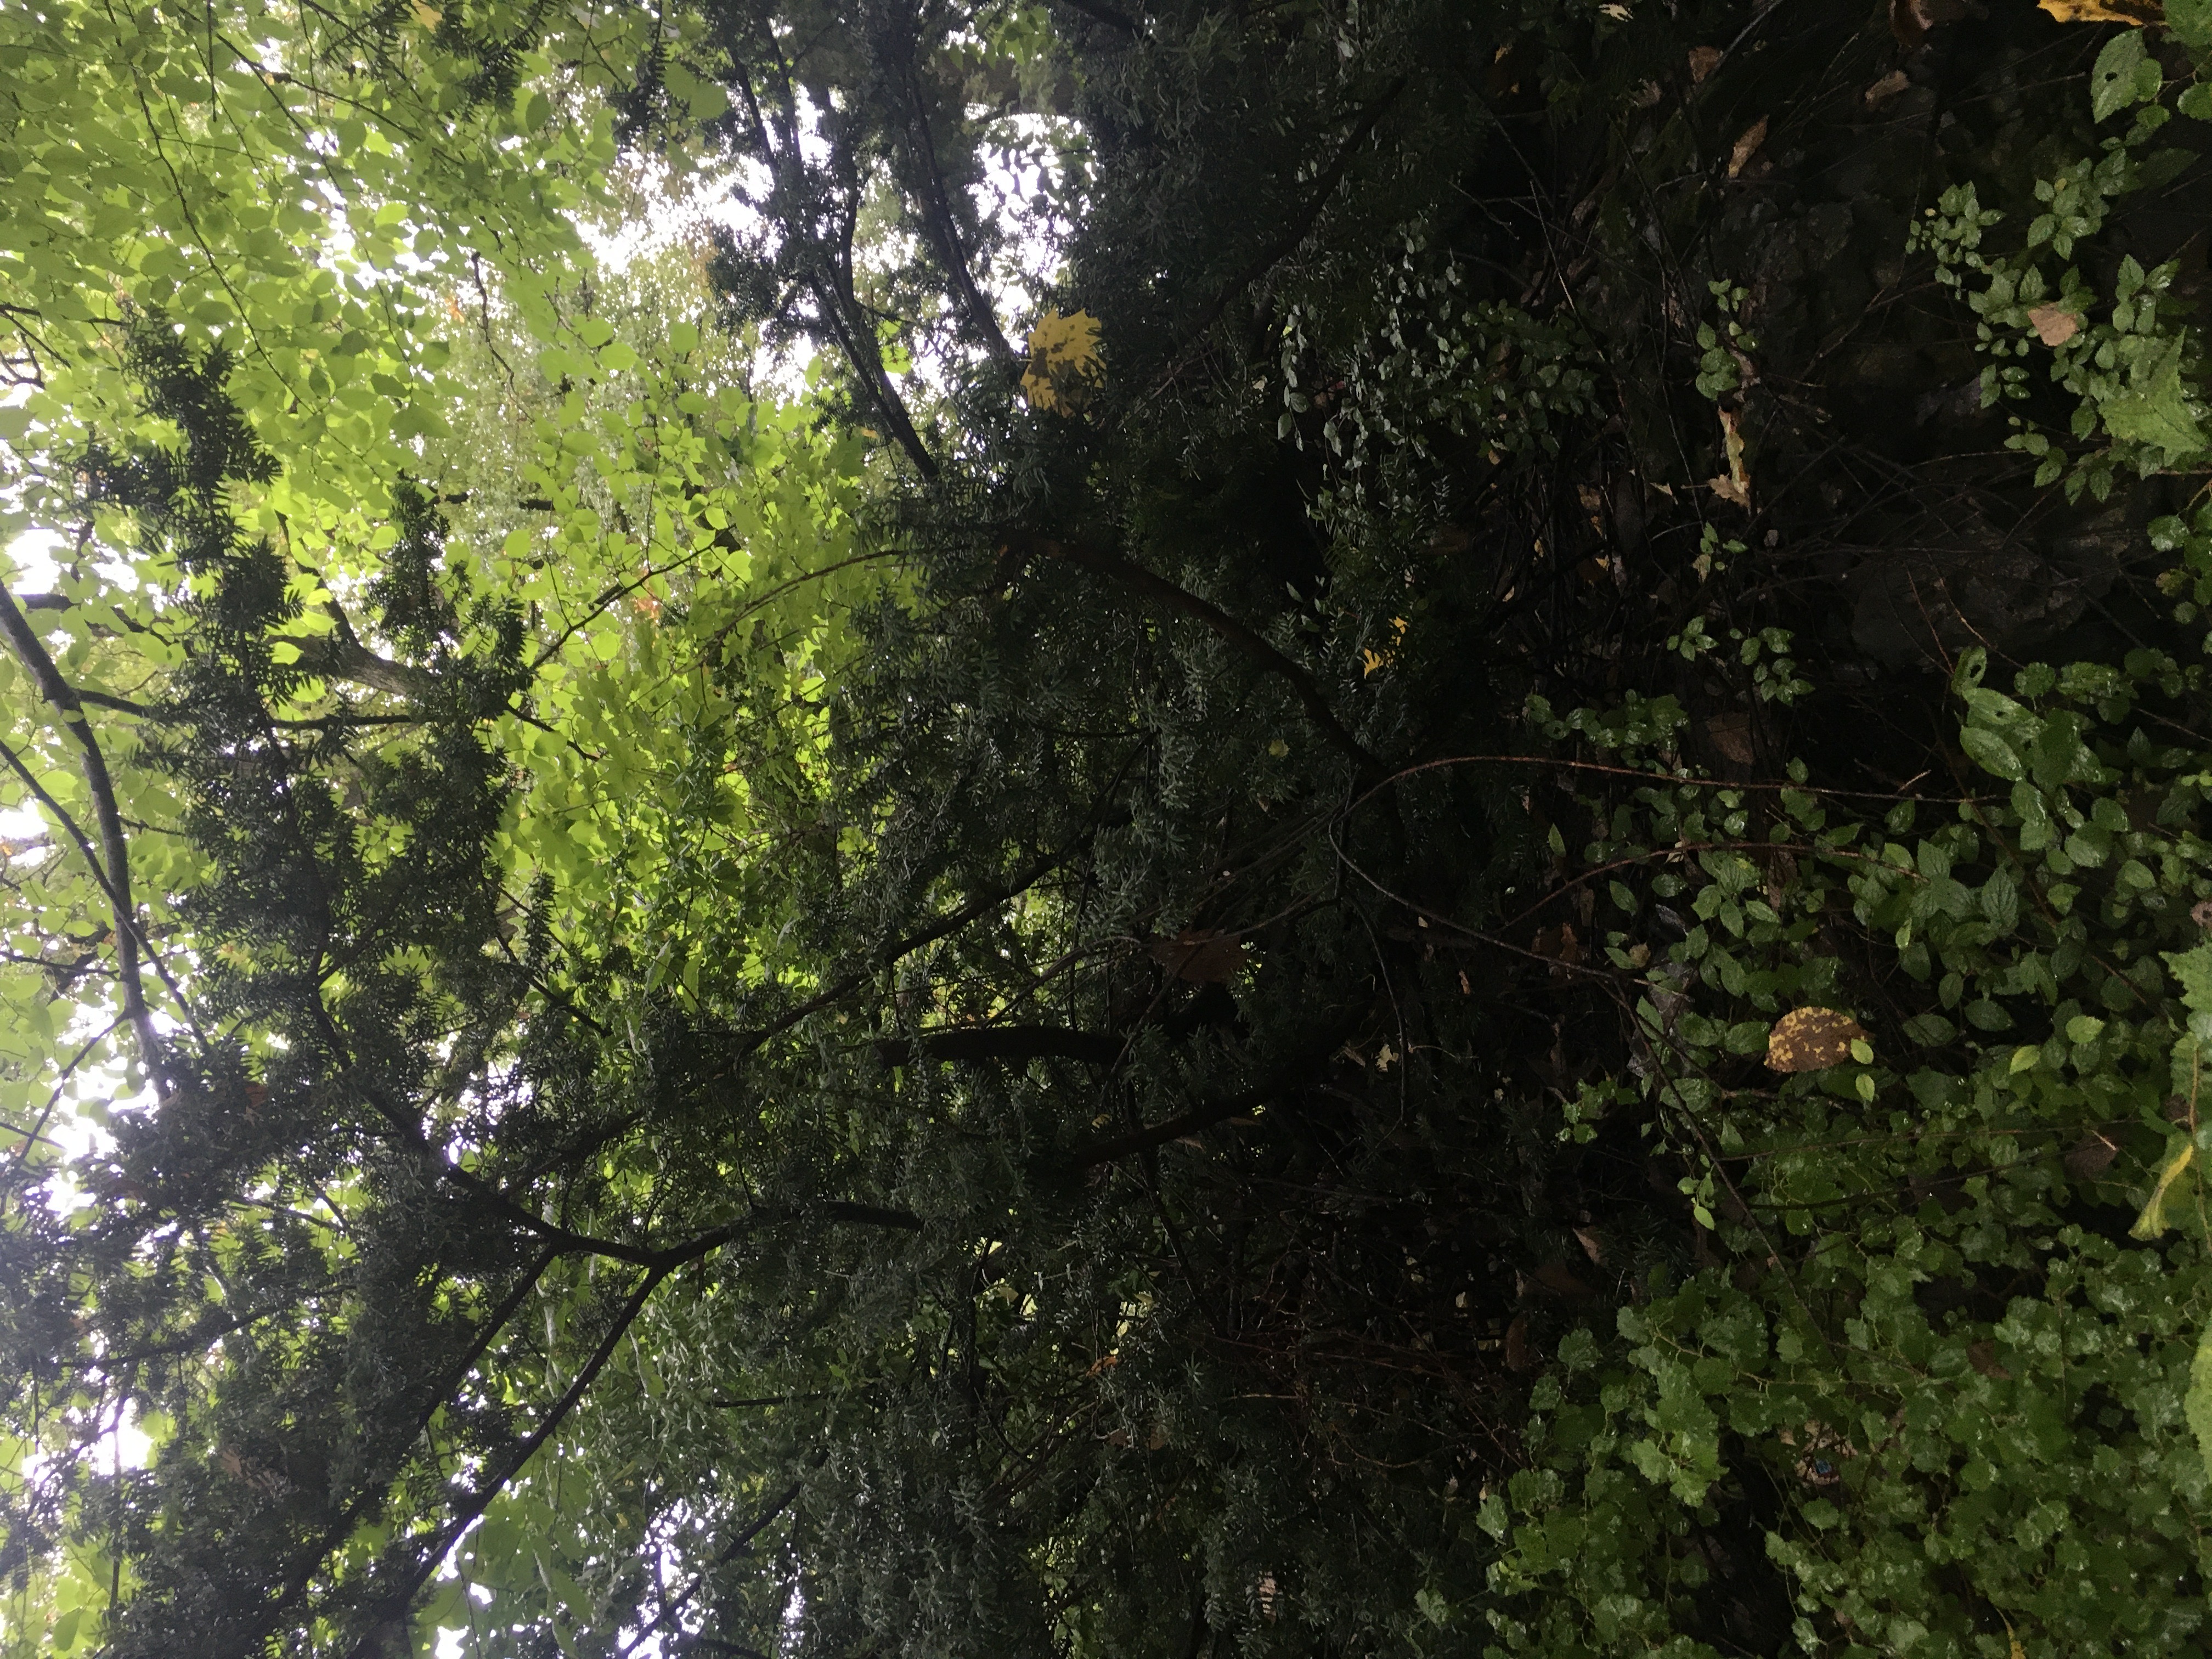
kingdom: Plantae
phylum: Tracheophyta
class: Pinopsida
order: Pinales
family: Taxaceae
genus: Taxus
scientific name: Taxus media
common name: hybridbarlind
